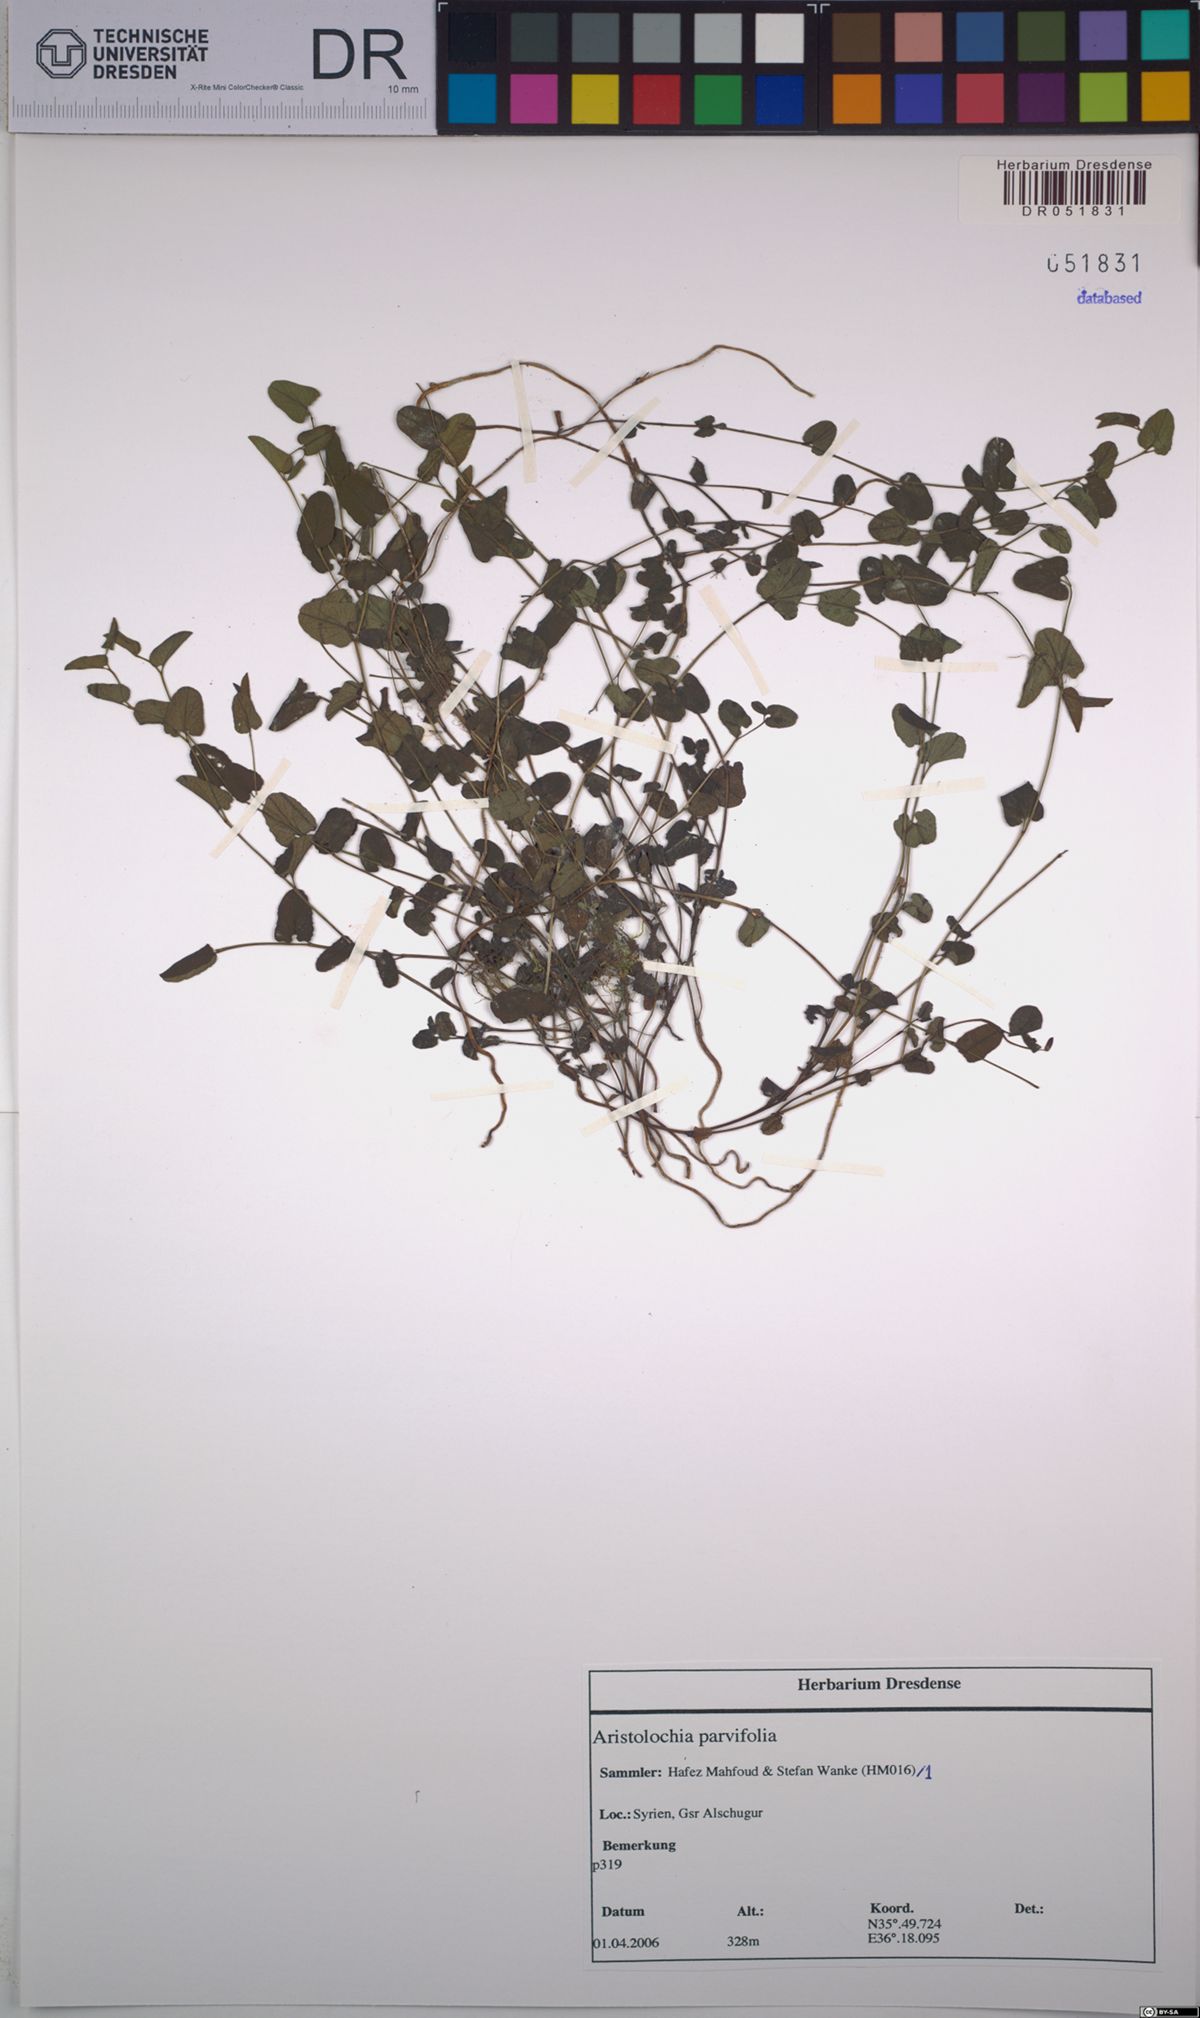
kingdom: Plantae
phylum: Tracheophyta
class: Magnoliopsida
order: Piperales
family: Aristolochiaceae
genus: Aristolochia
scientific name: Aristolochia parvifolia
